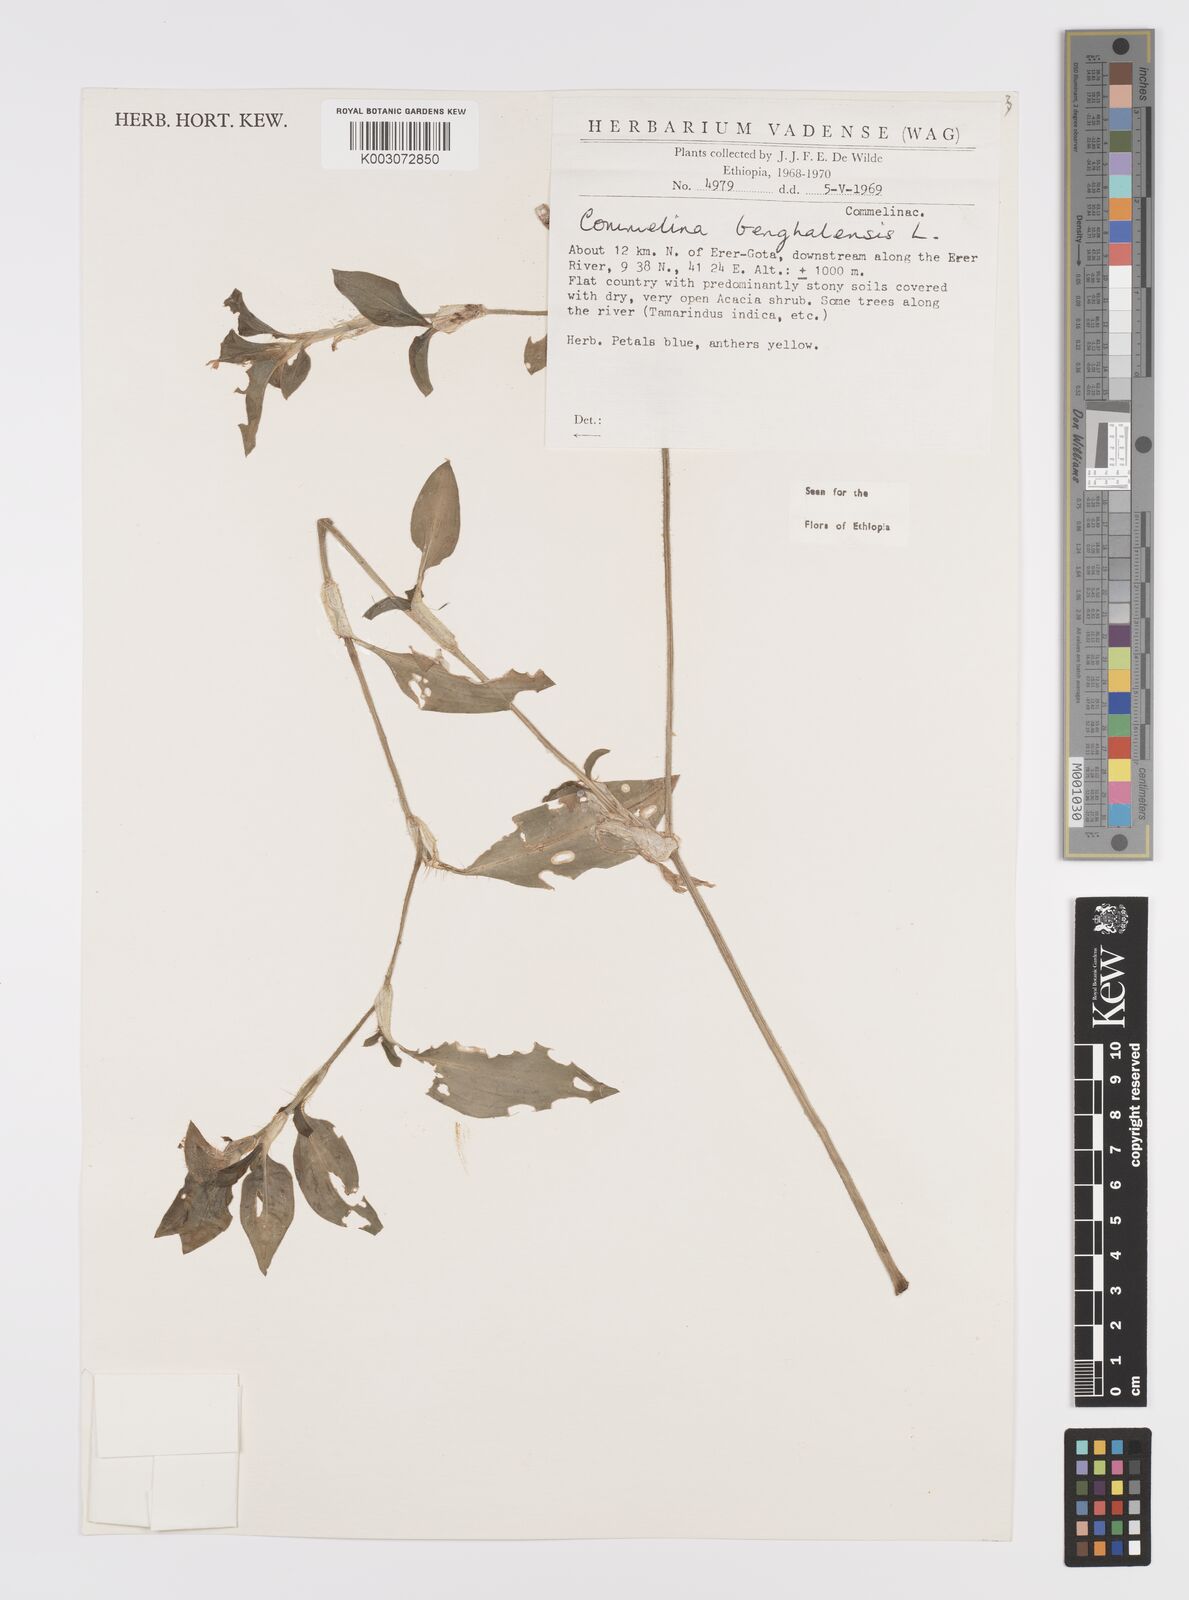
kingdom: Plantae
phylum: Tracheophyta
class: Liliopsida
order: Commelinales
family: Commelinaceae
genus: Commelina
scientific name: Commelina benghalensis
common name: Jio
